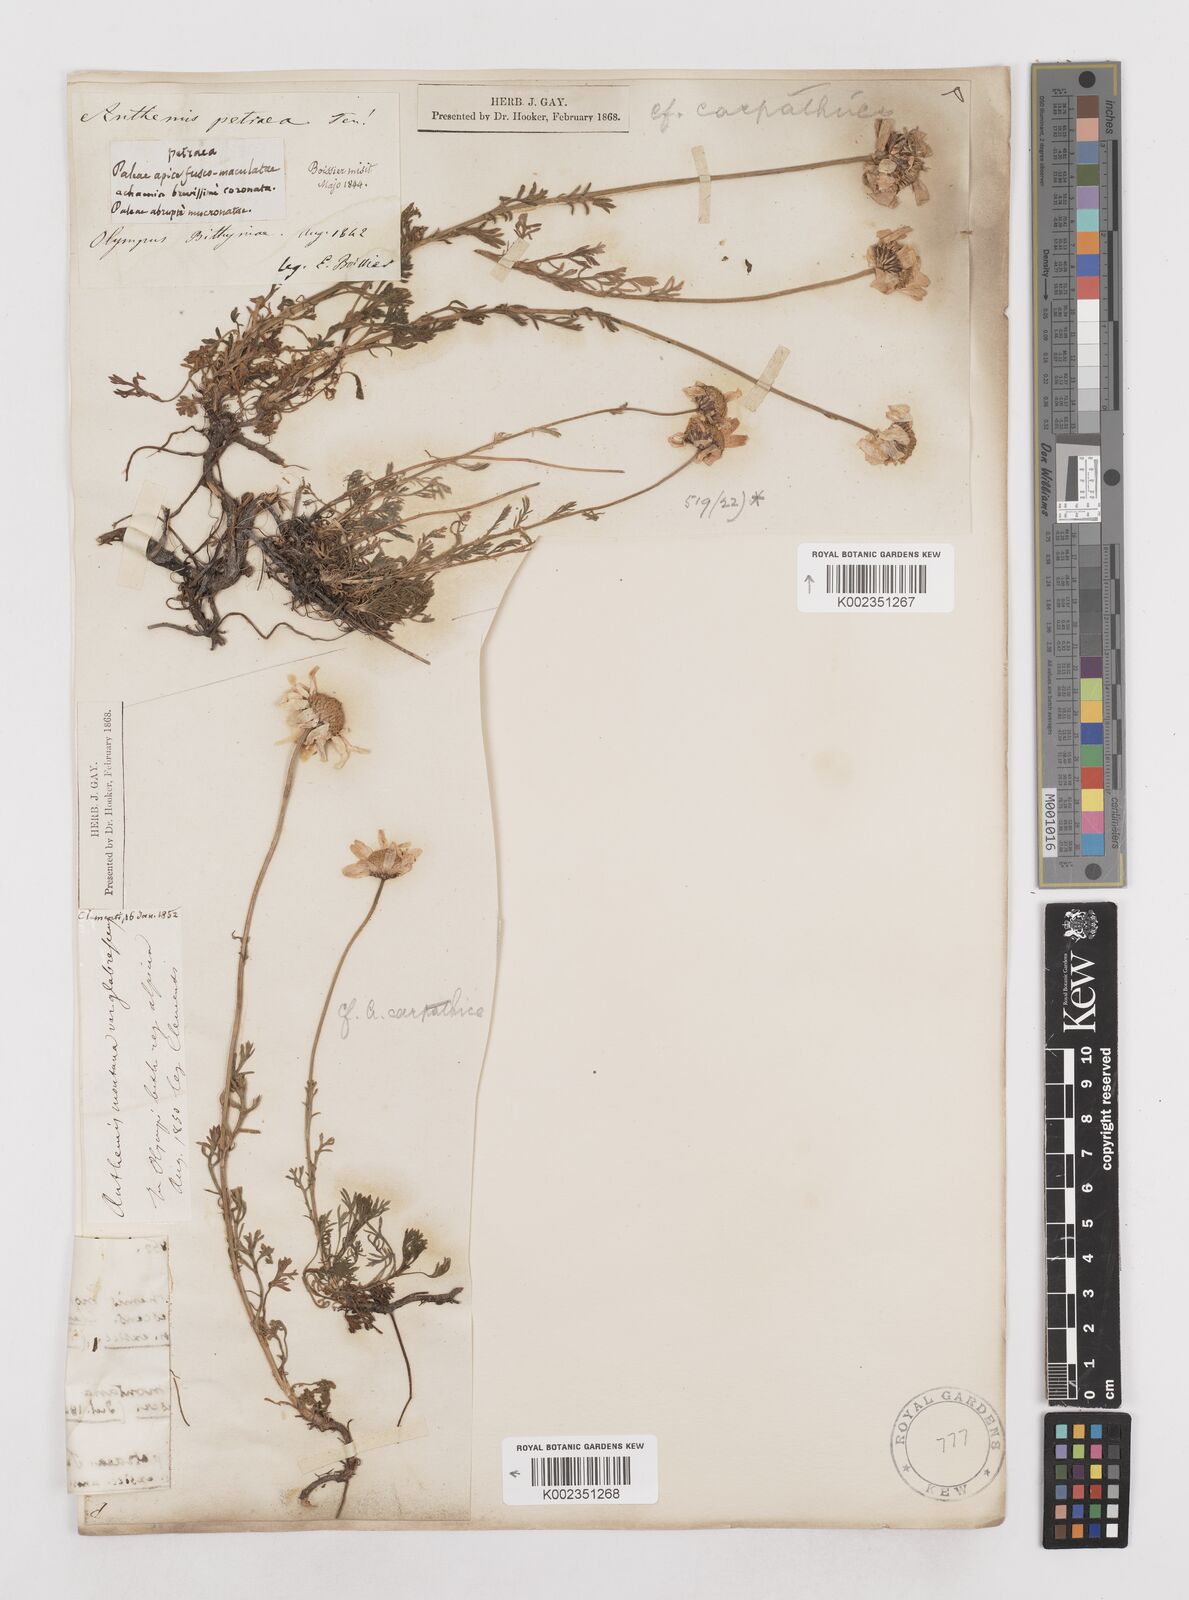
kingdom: Plantae
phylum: Tracheophyta
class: Magnoliopsida
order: Asterales
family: Asteraceae
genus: Anthemis
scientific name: Anthemis cretica
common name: Mountain dog-daisy
